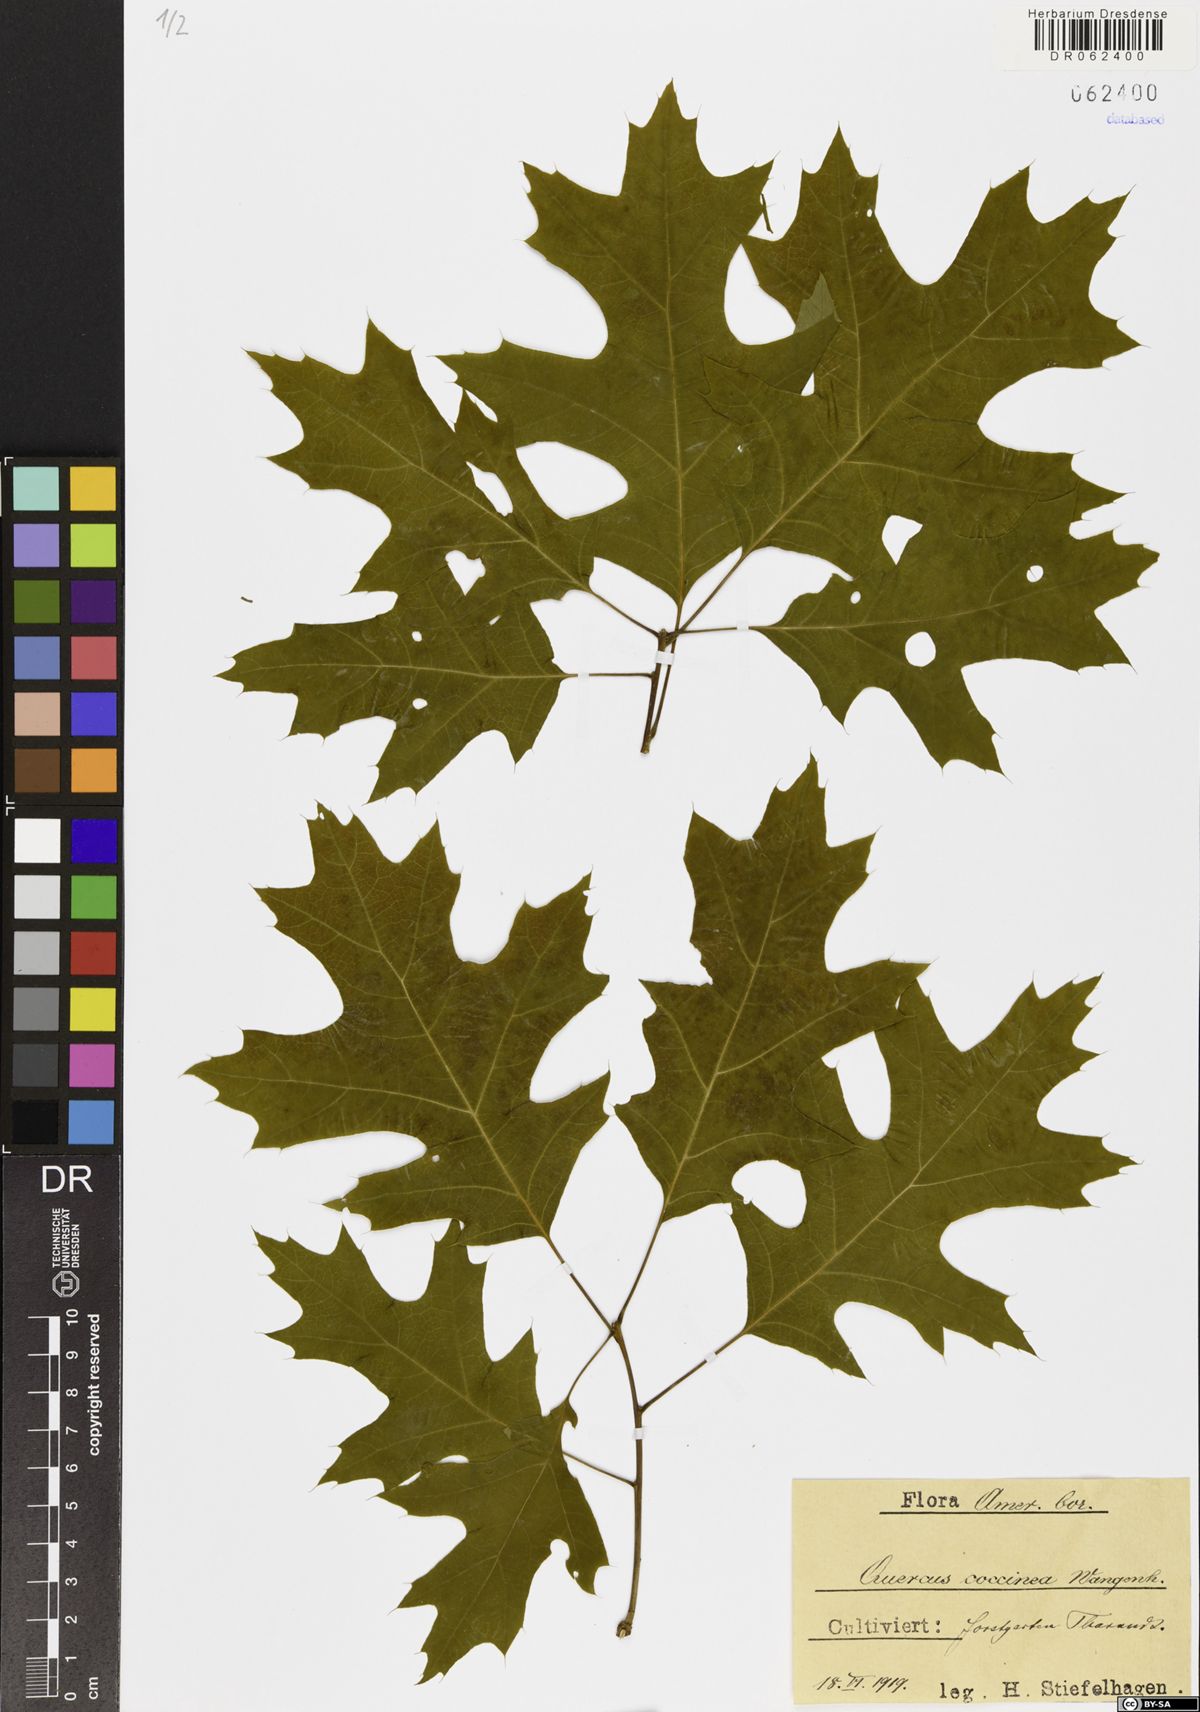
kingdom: Plantae
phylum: Tracheophyta
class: Magnoliopsida
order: Fagales
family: Fagaceae
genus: Quercus
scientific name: Quercus coccinea
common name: Scarlet oak
